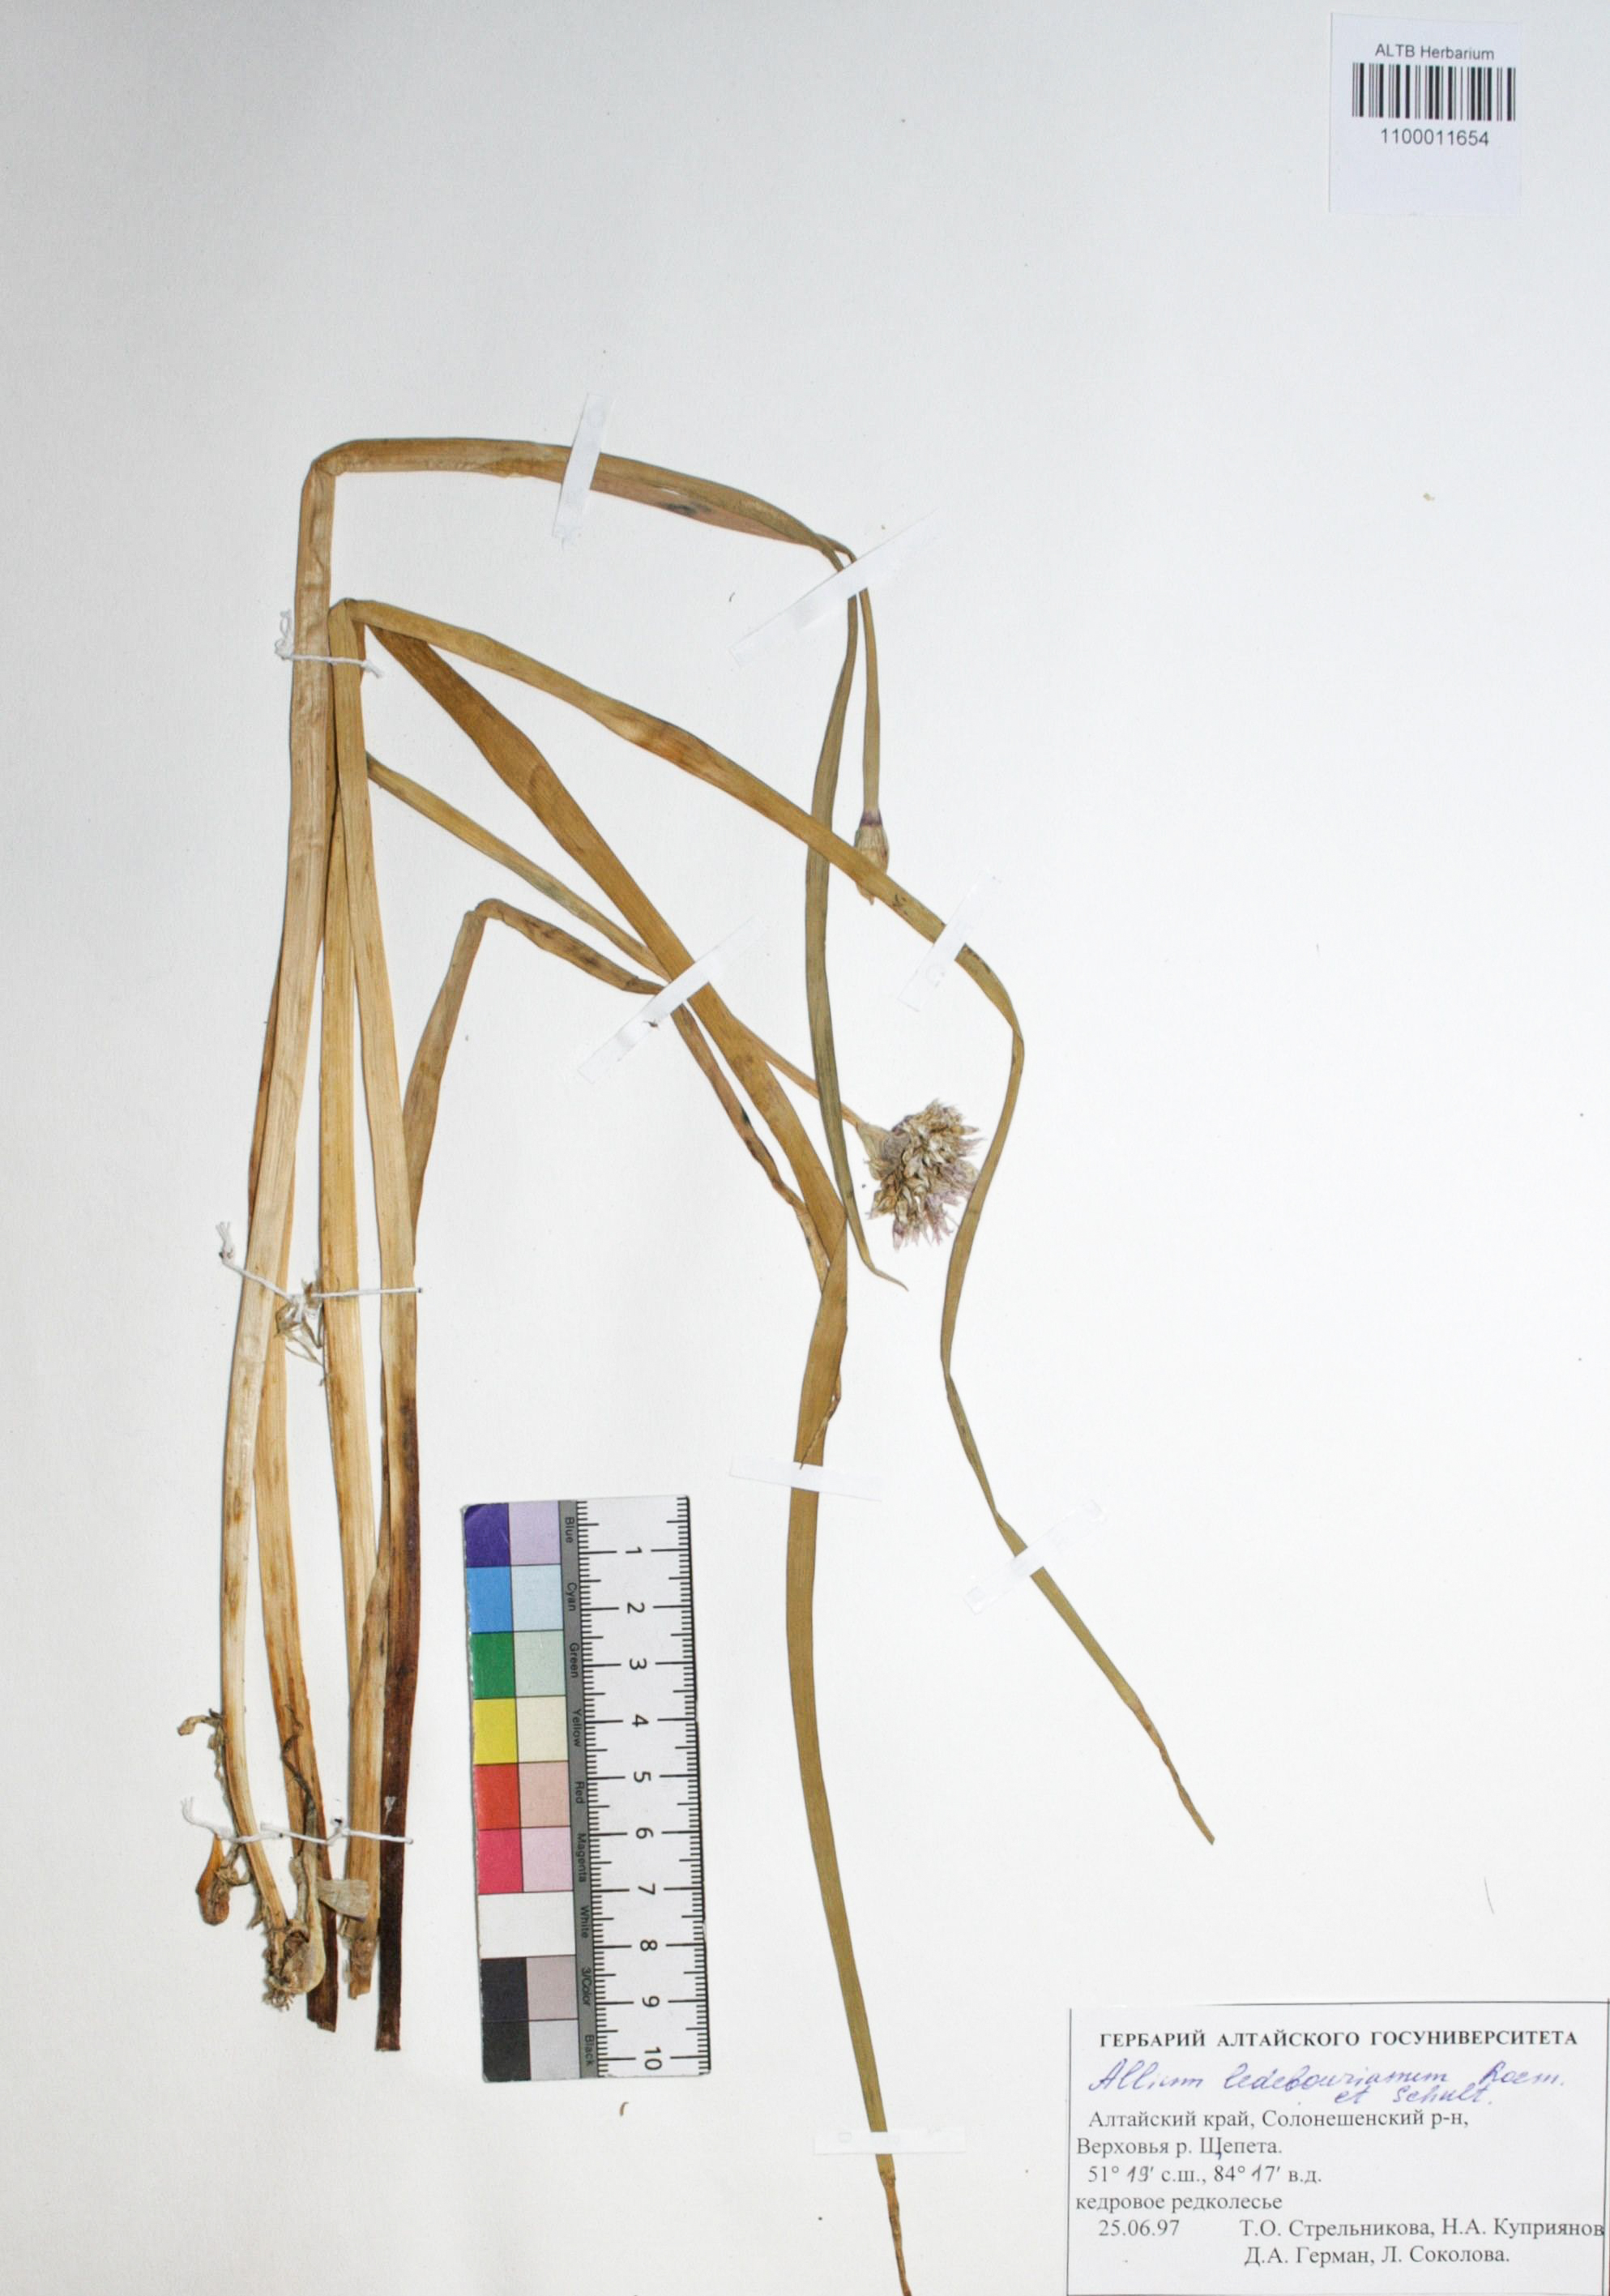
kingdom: Plantae
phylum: Tracheophyta
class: Liliopsida
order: Asparagales
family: Amaryllidaceae
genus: Allium
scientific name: Allium ledebourianum
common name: Ledebour chive
